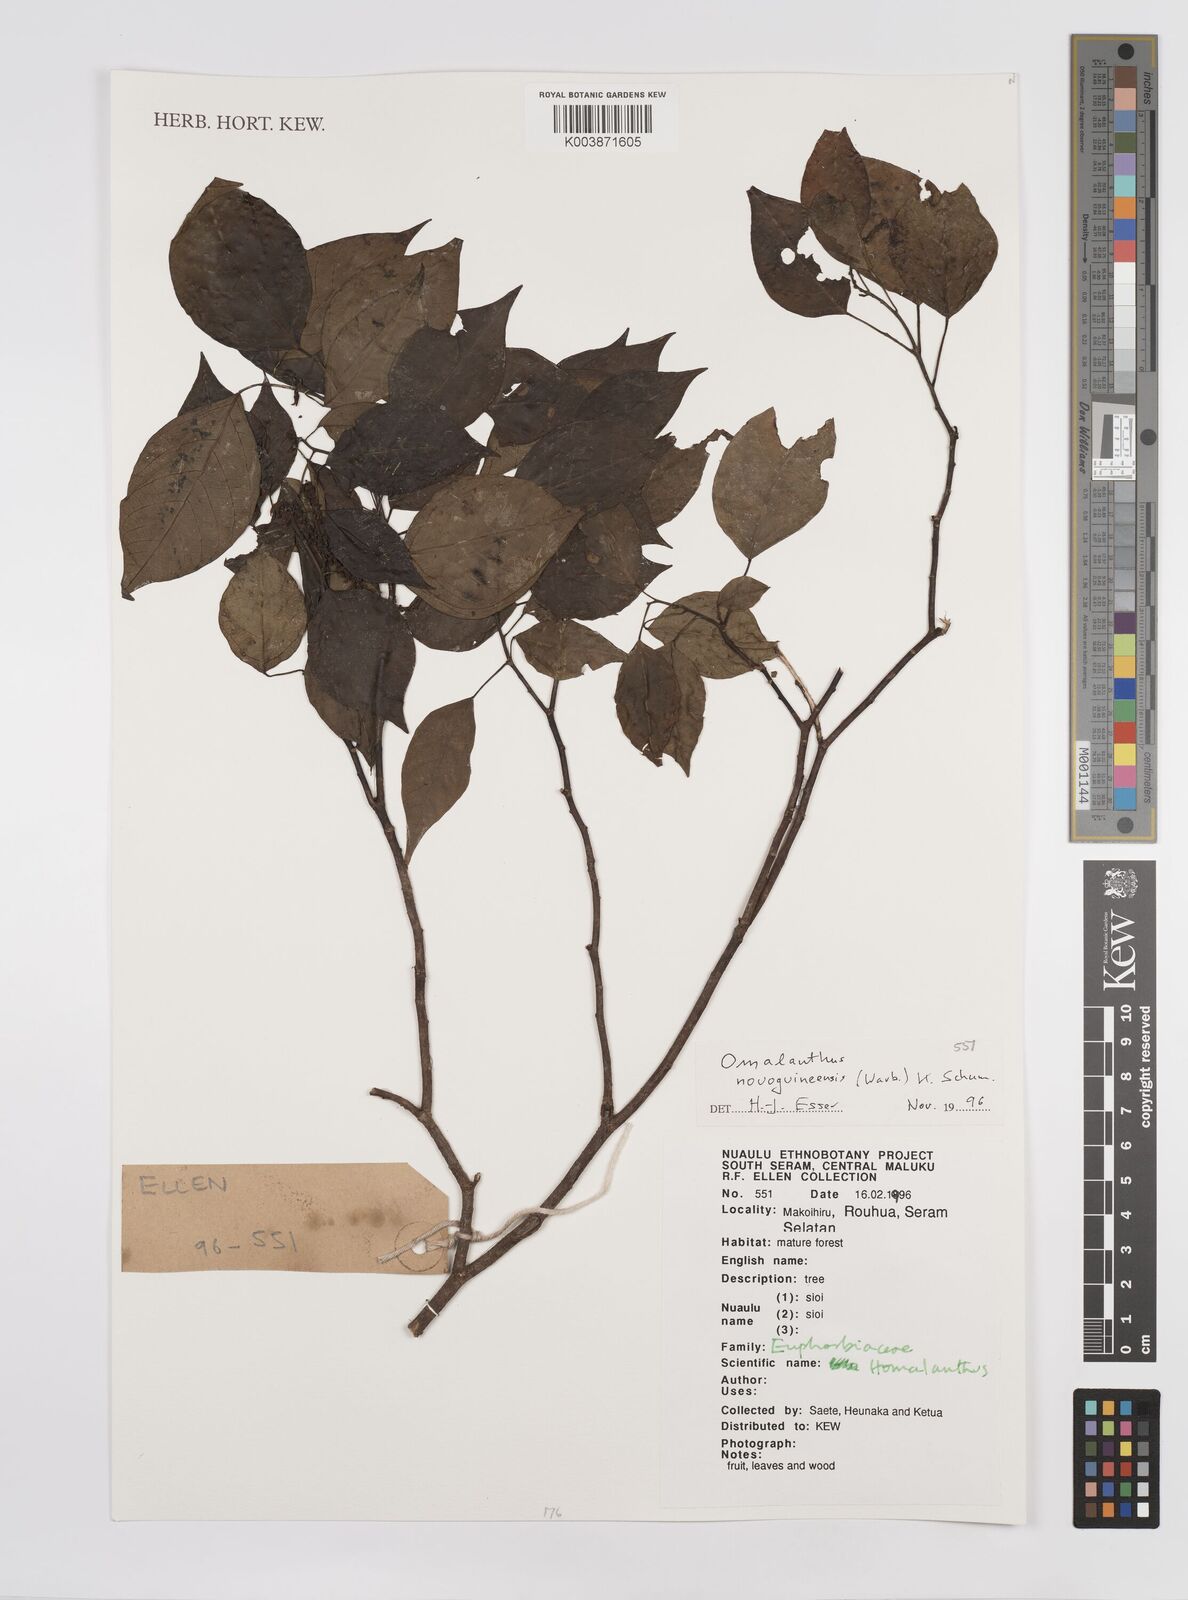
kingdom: Plantae
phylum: Tracheophyta
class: Magnoliopsida
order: Malpighiales
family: Euphorbiaceae
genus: Homalanthus
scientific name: Homalanthus novoguineensis
